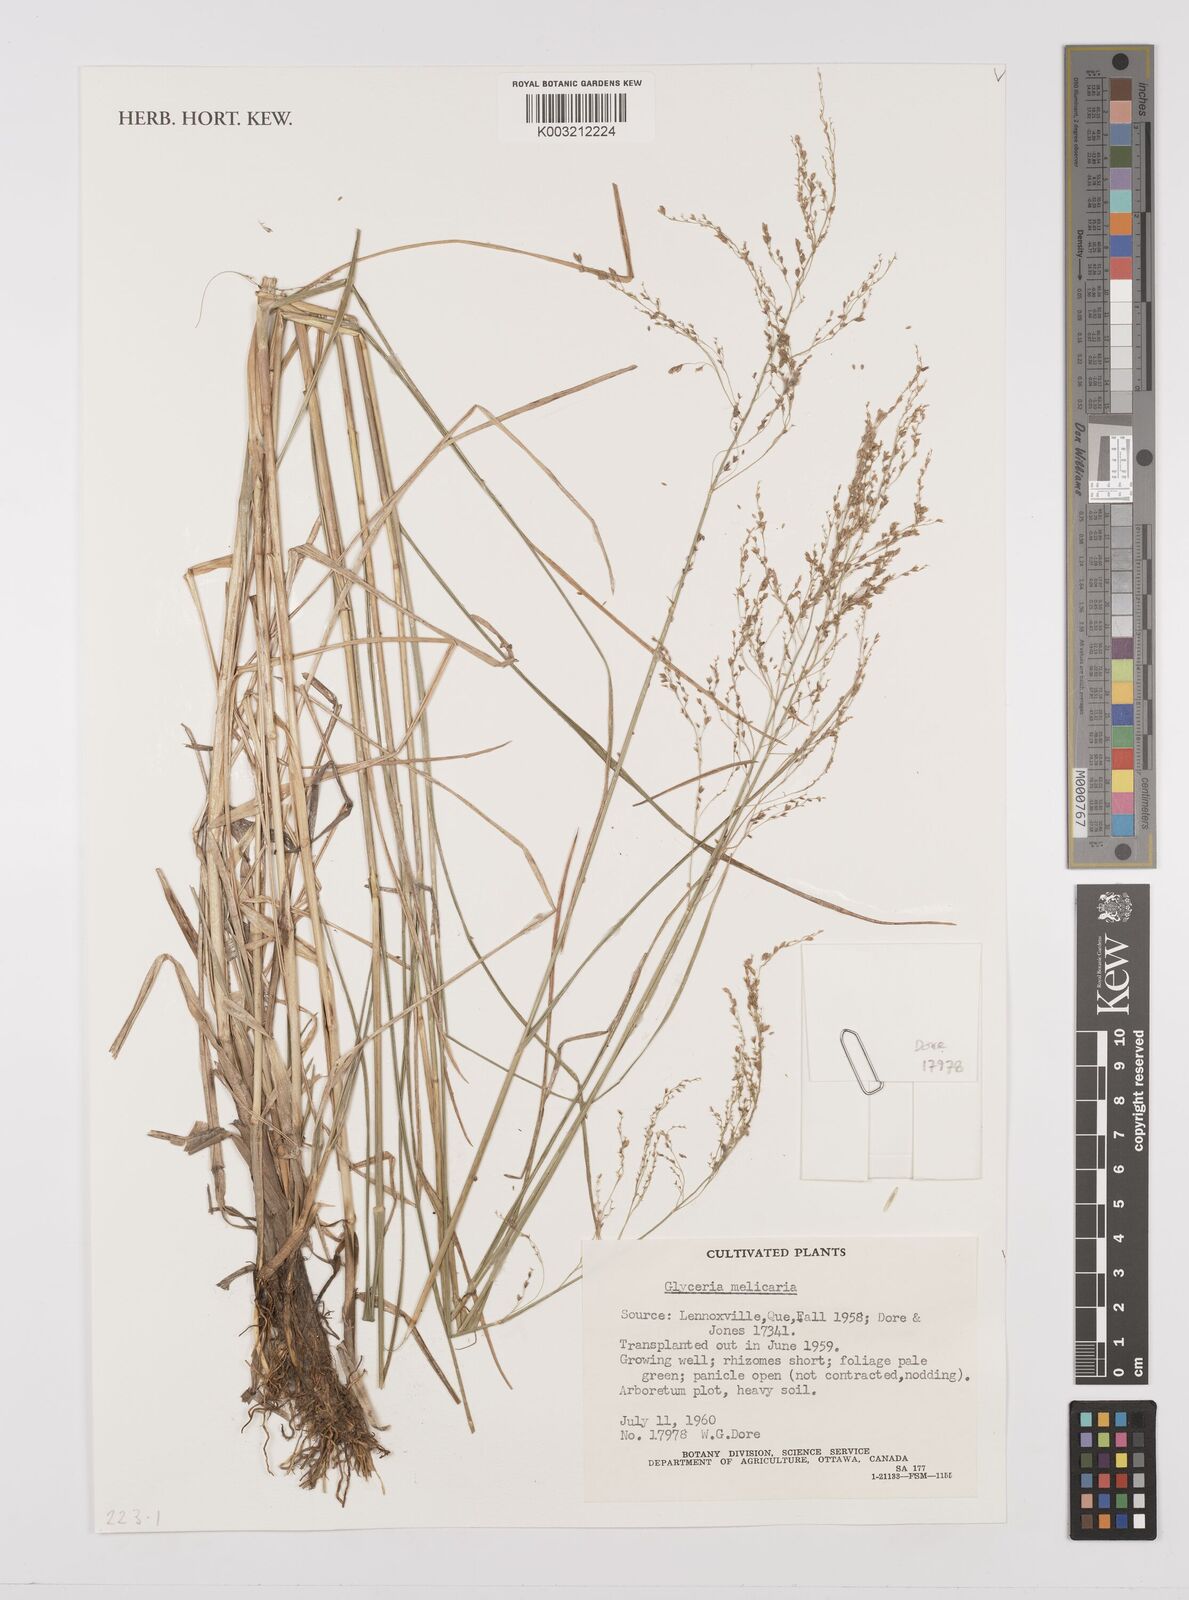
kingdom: Plantae
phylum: Tracheophyta
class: Liliopsida
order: Poales
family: Poaceae
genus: Glyceria
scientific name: Glyceria melicaria
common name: Long mannagrass
